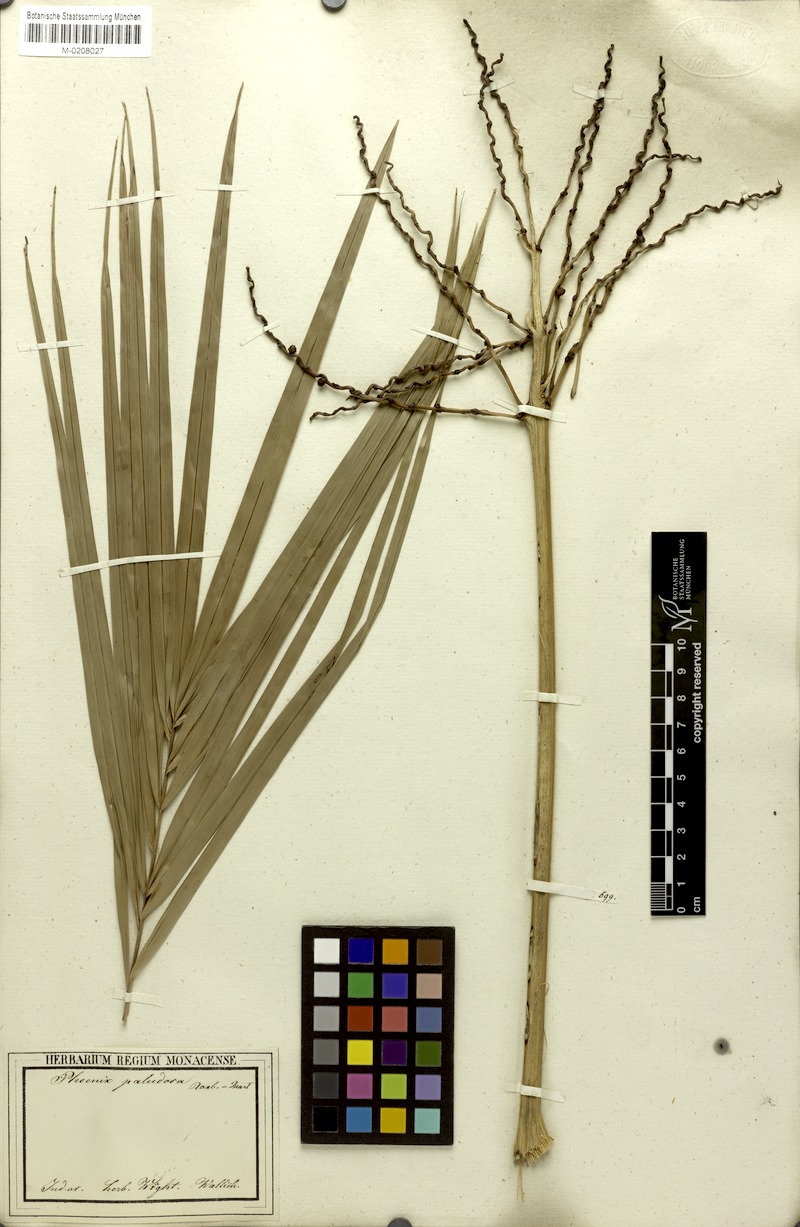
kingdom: Plantae
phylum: Tracheophyta
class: Liliopsida
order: Arecales
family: Arecaceae
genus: Phoenix
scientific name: Phoenix paludosa
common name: Mangrove date palm
